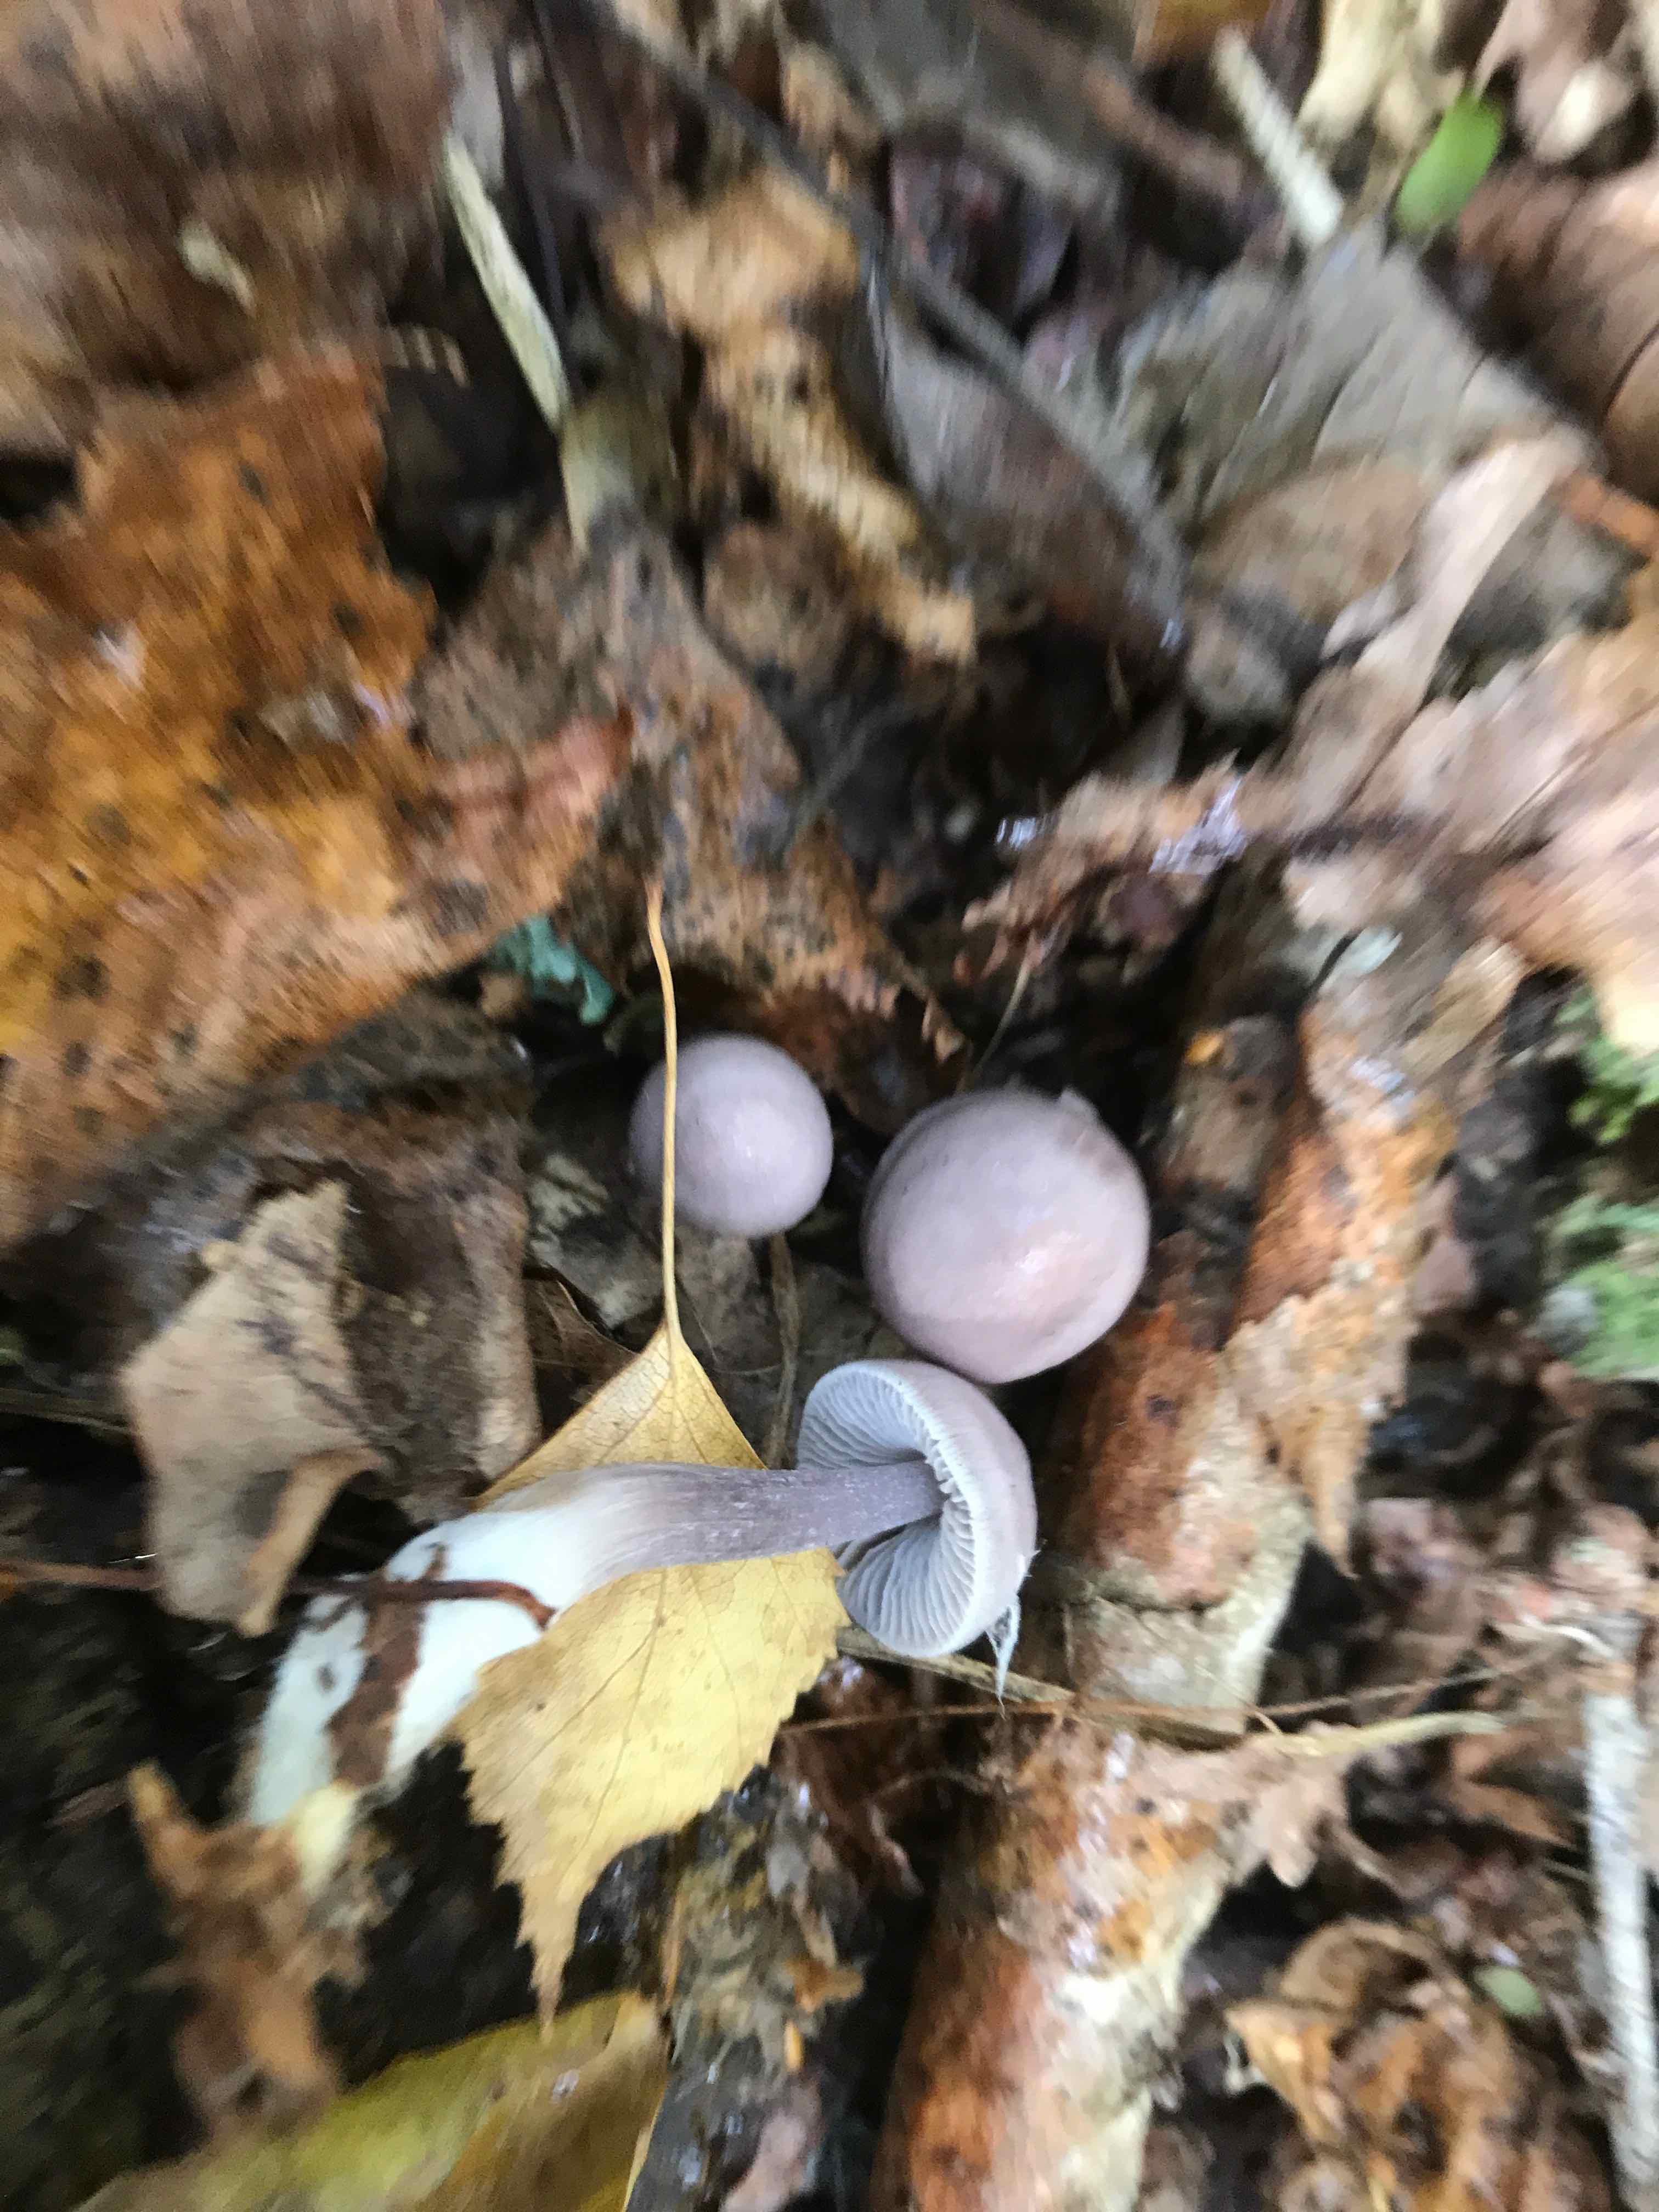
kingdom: Fungi
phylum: Basidiomycota
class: Agaricomycetes
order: Agaricales
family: Hydnangiaceae
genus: Laccaria
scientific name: Laccaria amethystina
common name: violet ametysthat
